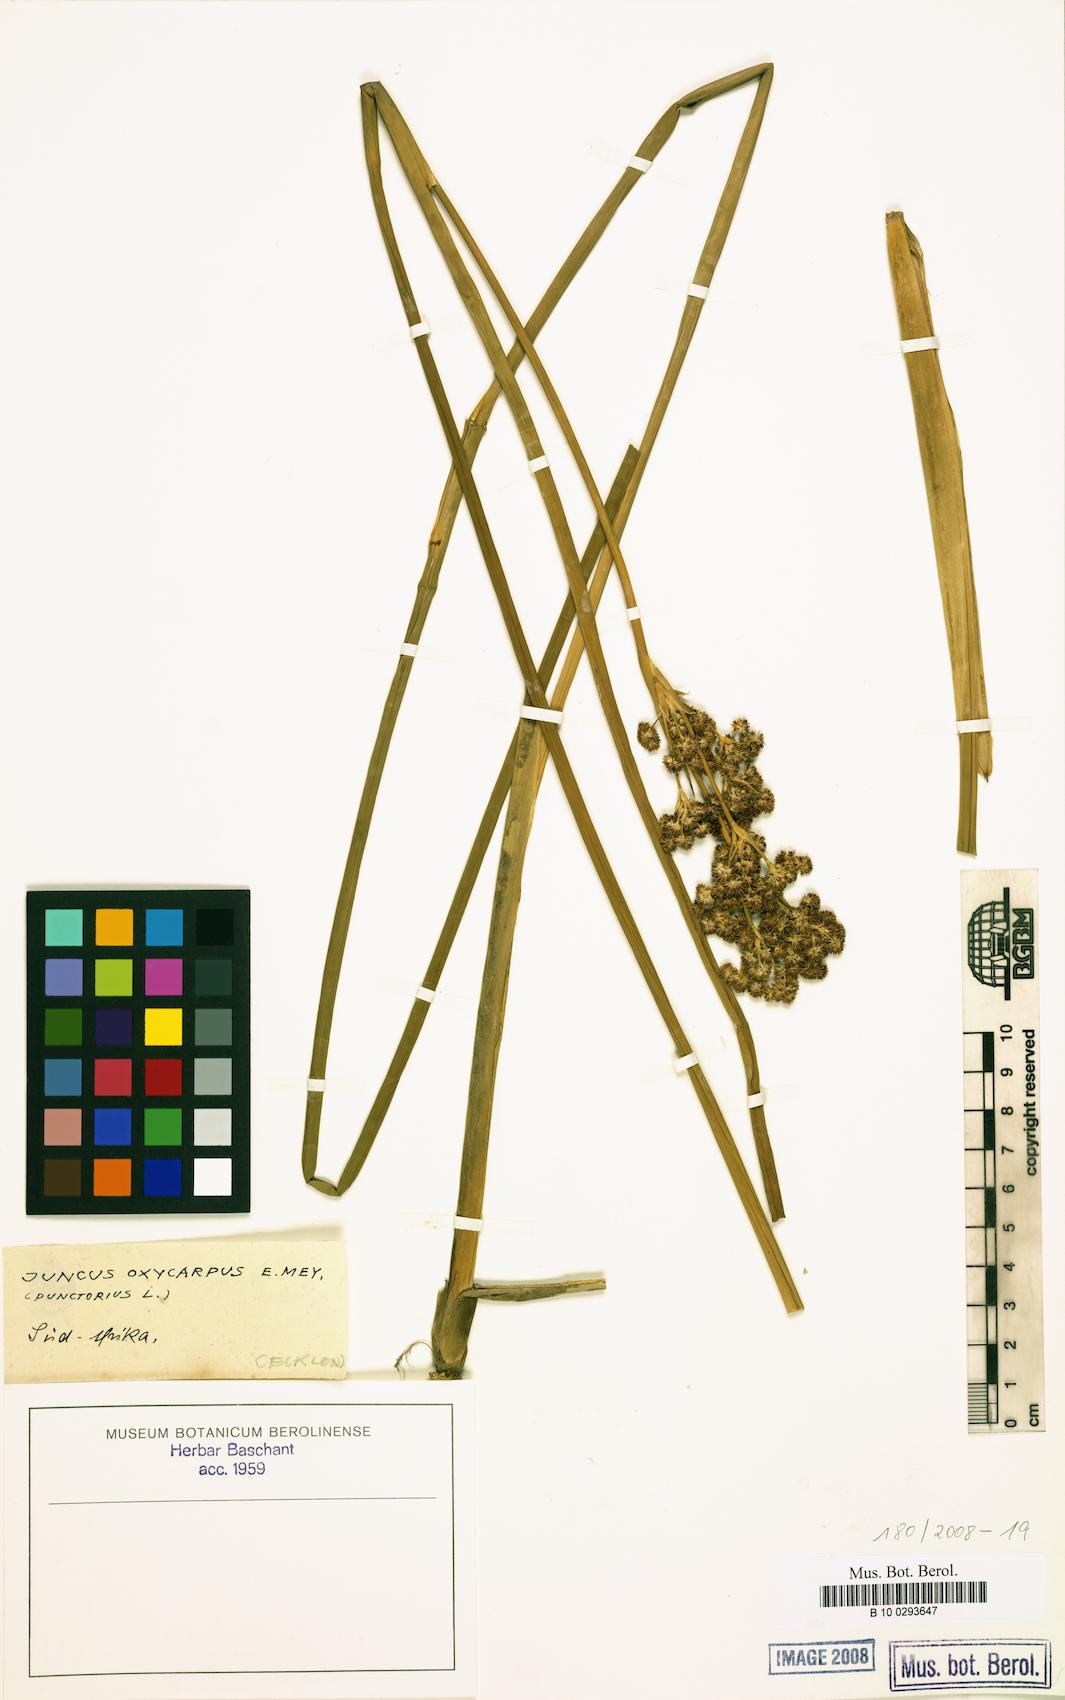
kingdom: Plantae
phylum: Tracheophyta
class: Liliopsida
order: Poales
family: Juncaceae
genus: Juncus
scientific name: Juncus oxycarpus
